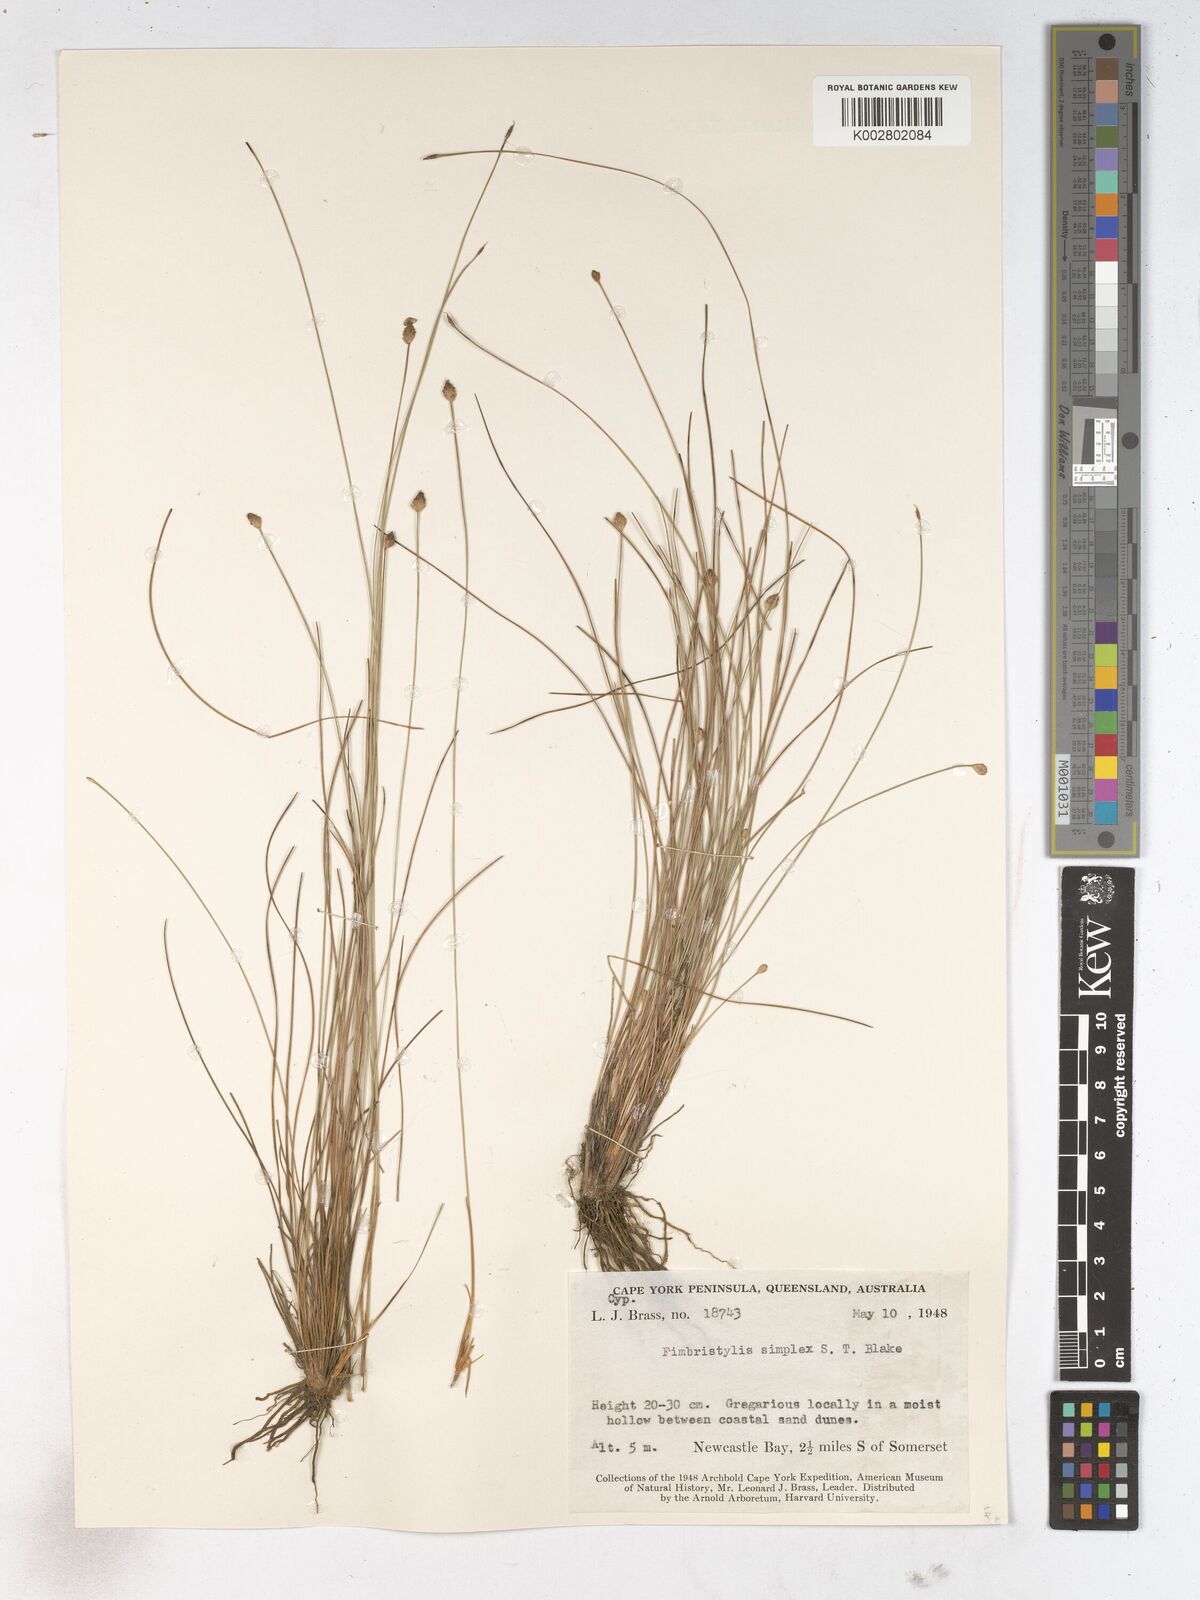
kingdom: Plantae
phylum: Tracheophyta
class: Liliopsida
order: Poales
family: Cyperaceae
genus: Fimbristylis
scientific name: Fimbristylis simplex
